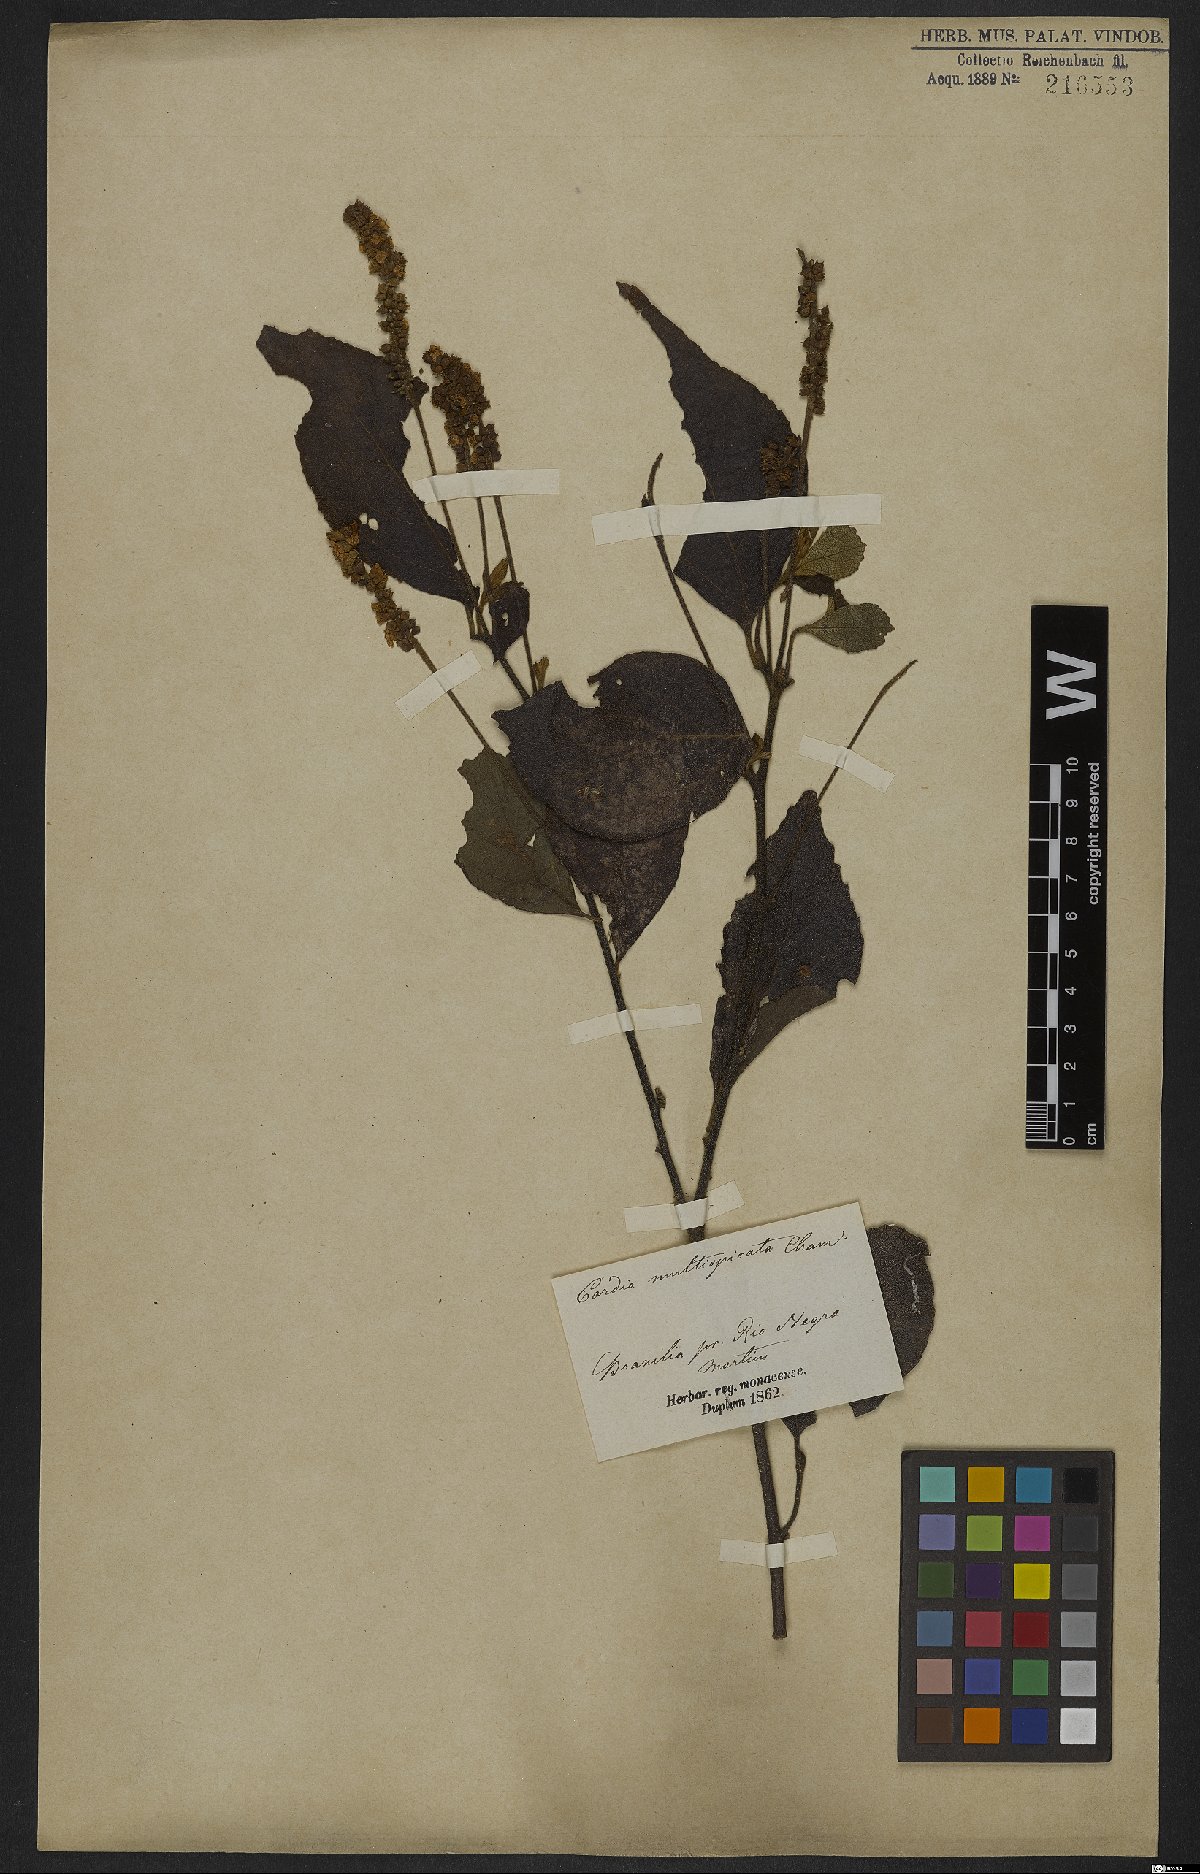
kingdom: Plantae
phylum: Tracheophyta
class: Magnoliopsida
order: Boraginales
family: Cordiaceae
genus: Varronia
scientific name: Varronia multispicata
